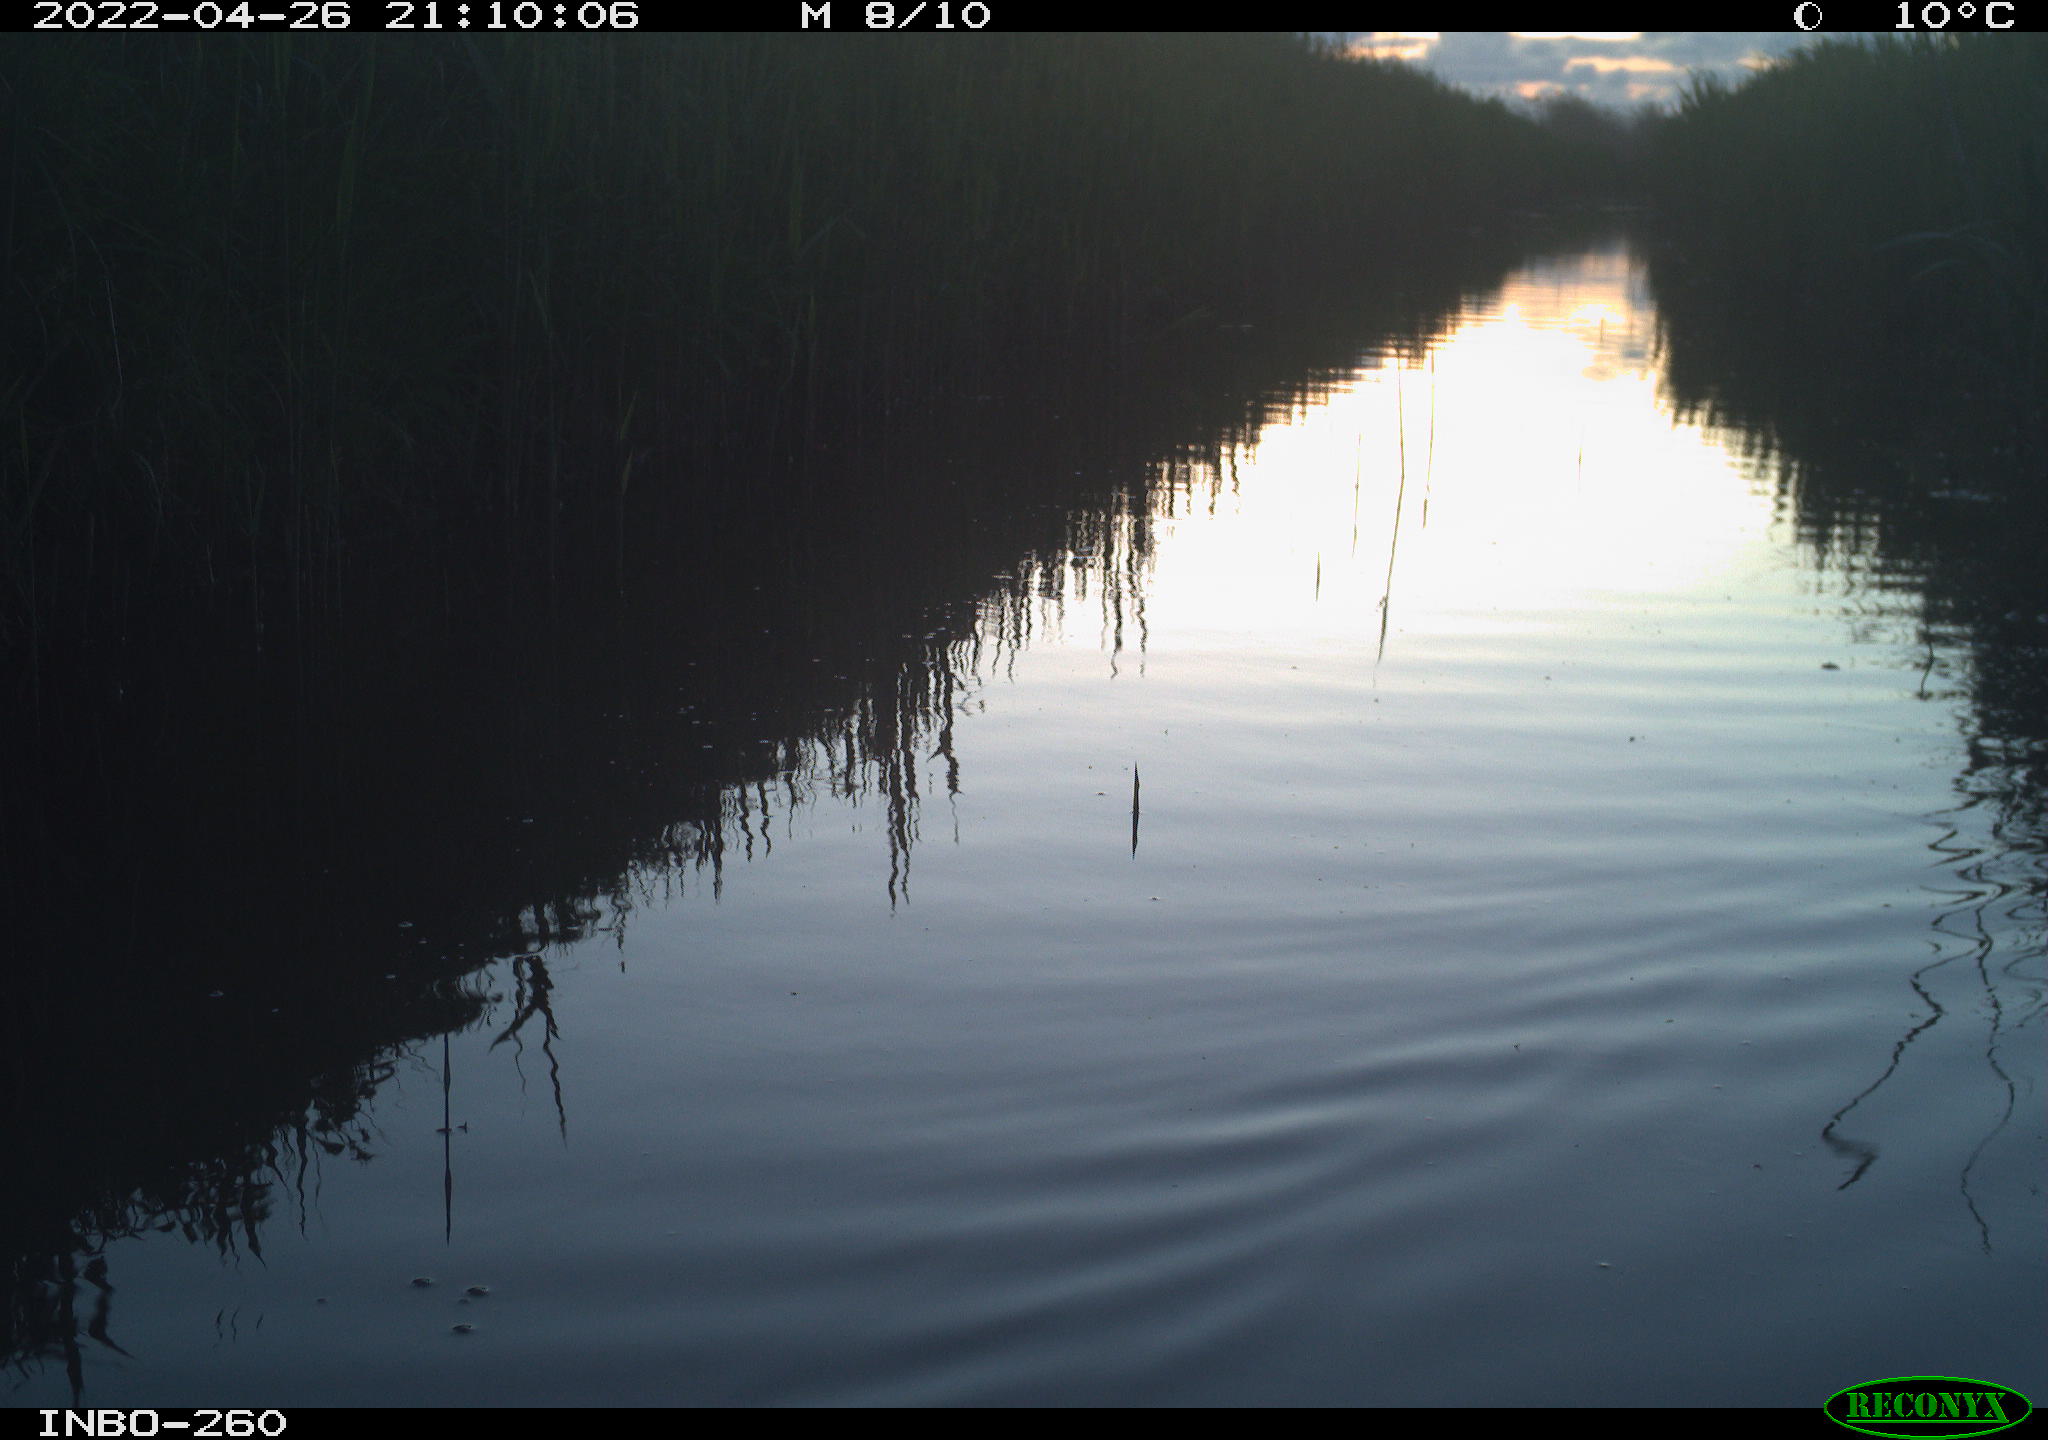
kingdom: Animalia
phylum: Chordata
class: Aves
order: Gruiformes
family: Rallidae
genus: Fulica
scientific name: Fulica atra
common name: Eurasian coot
